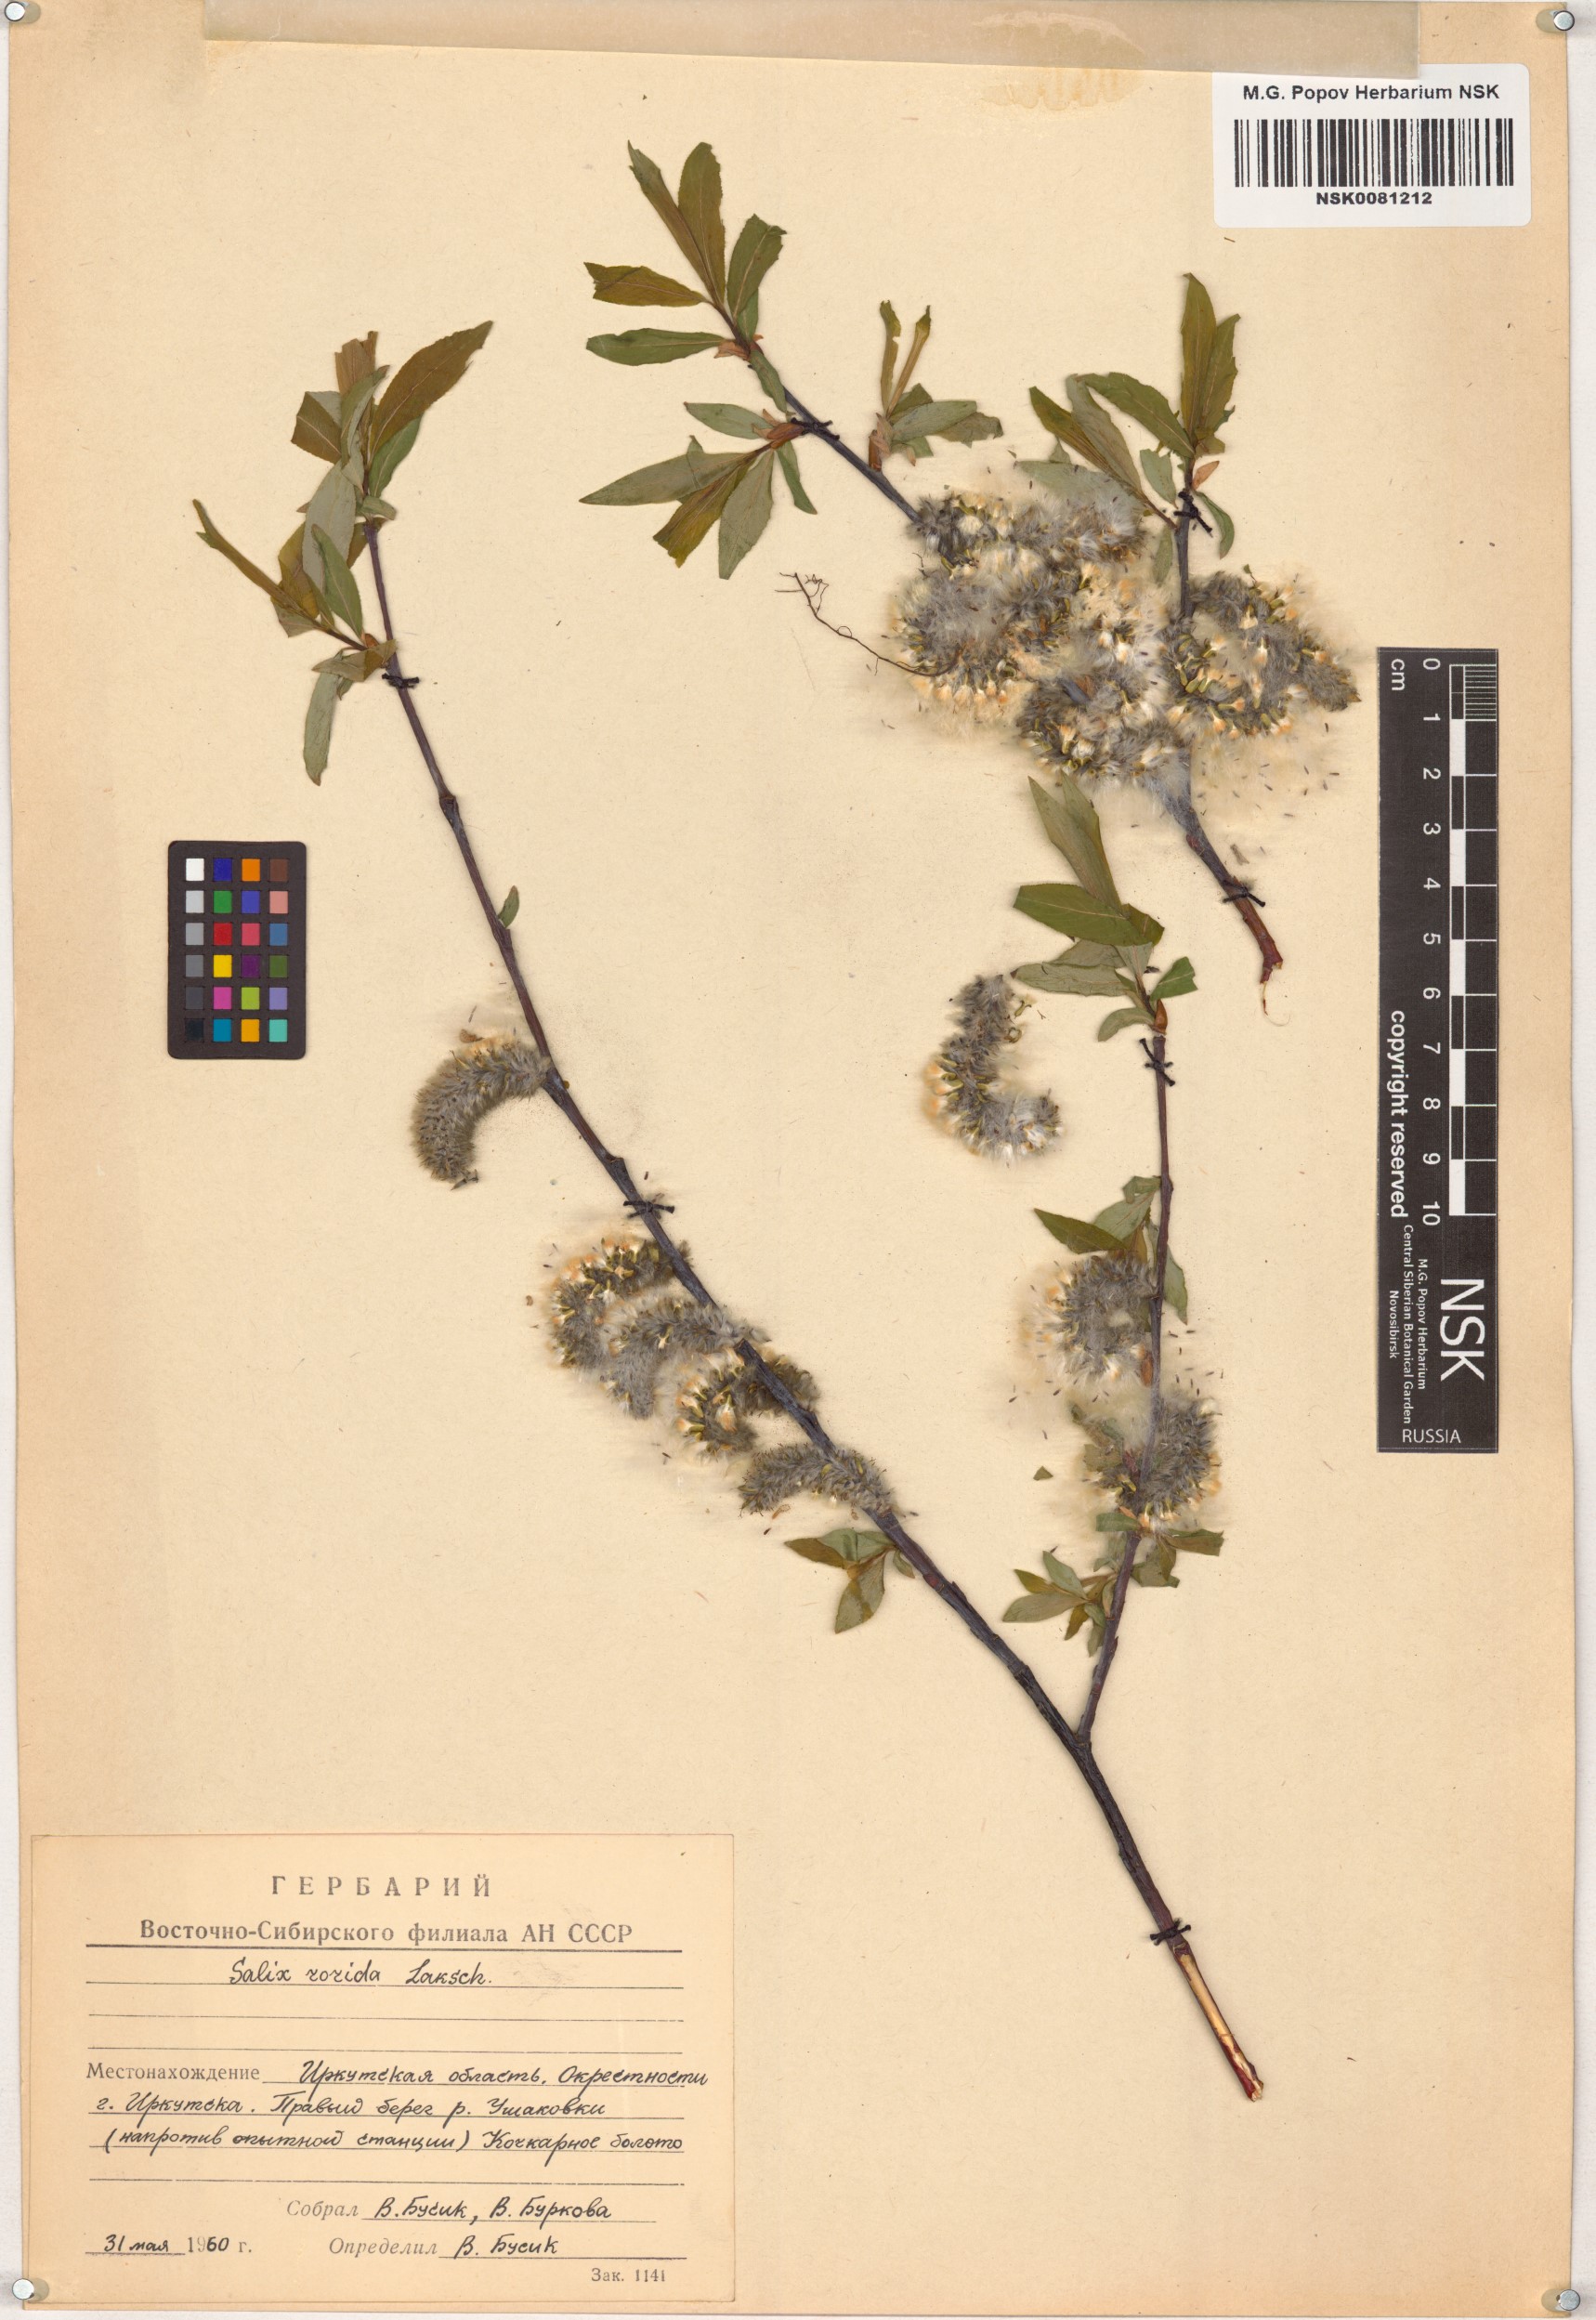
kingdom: Plantae
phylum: Tracheophyta
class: Magnoliopsida
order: Malpighiales
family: Salicaceae
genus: Salix
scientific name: Salix rorida
